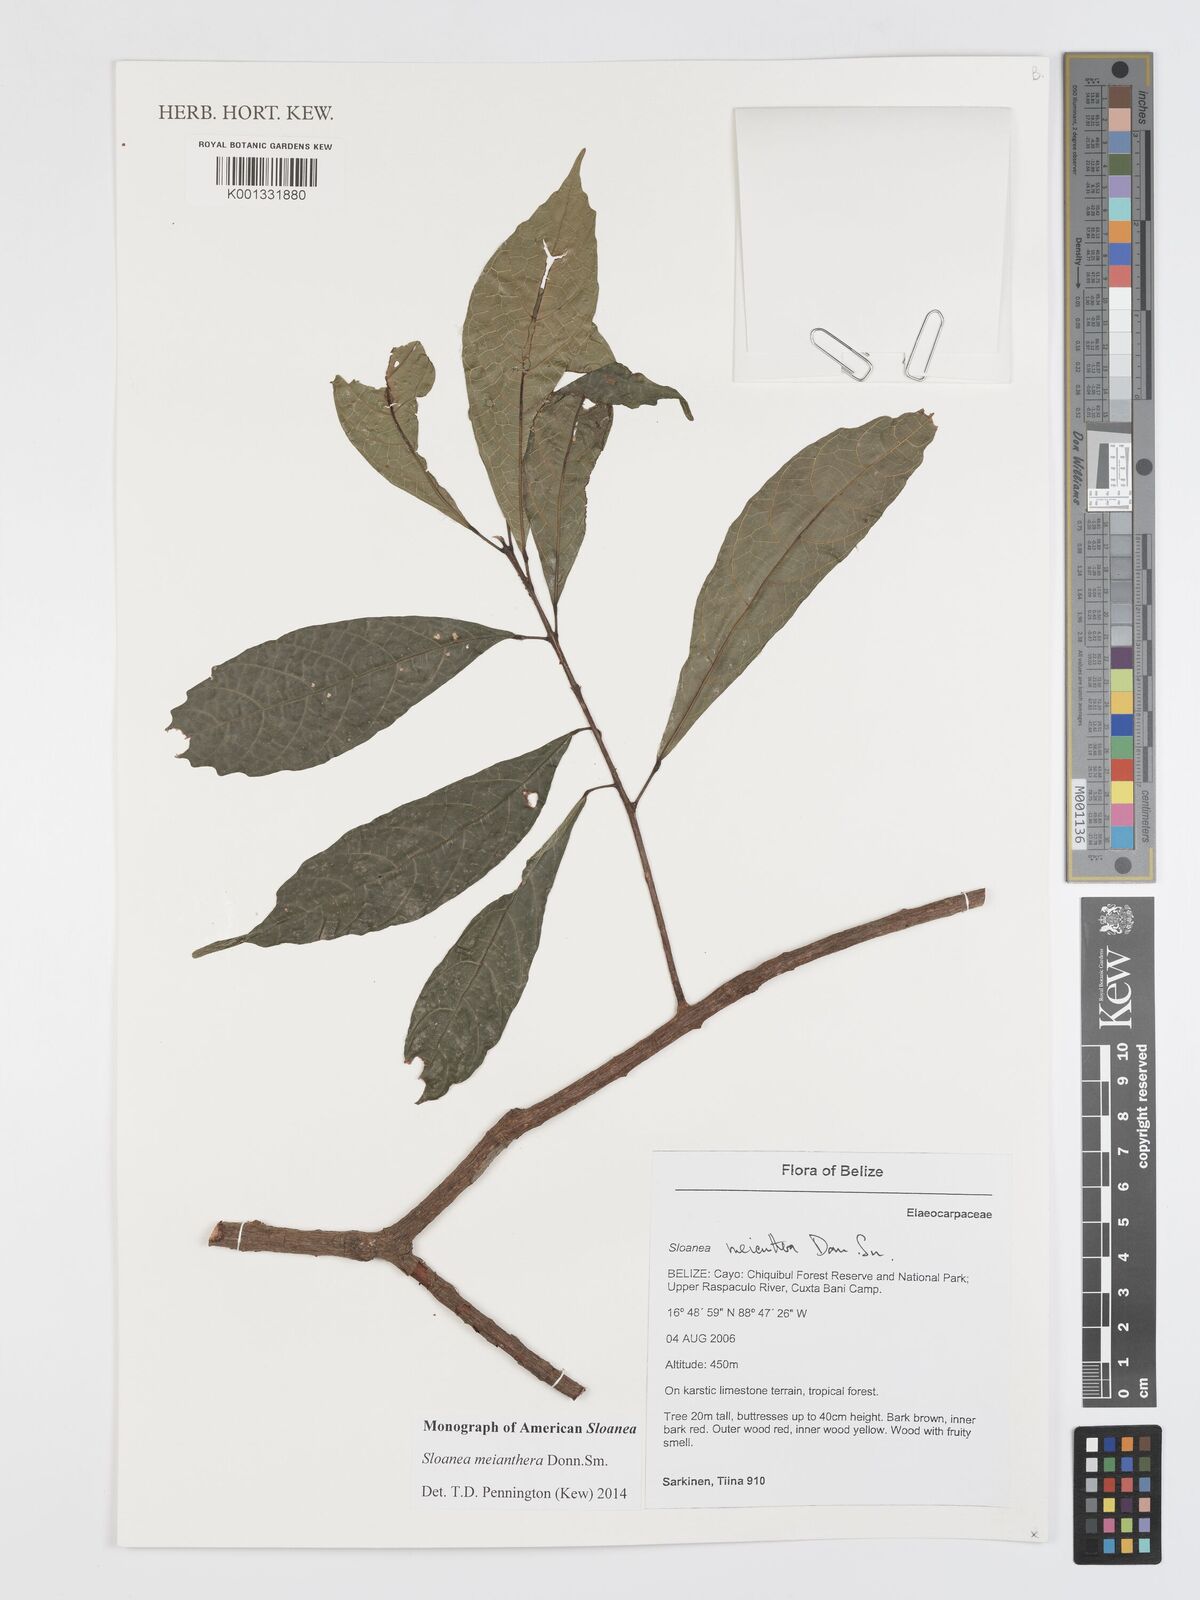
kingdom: Plantae
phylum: Tracheophyta
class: Magnoliopsida
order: Oxalidales
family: Elaeocarpaceae
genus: Sloanea
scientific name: Sloanea meianthera
